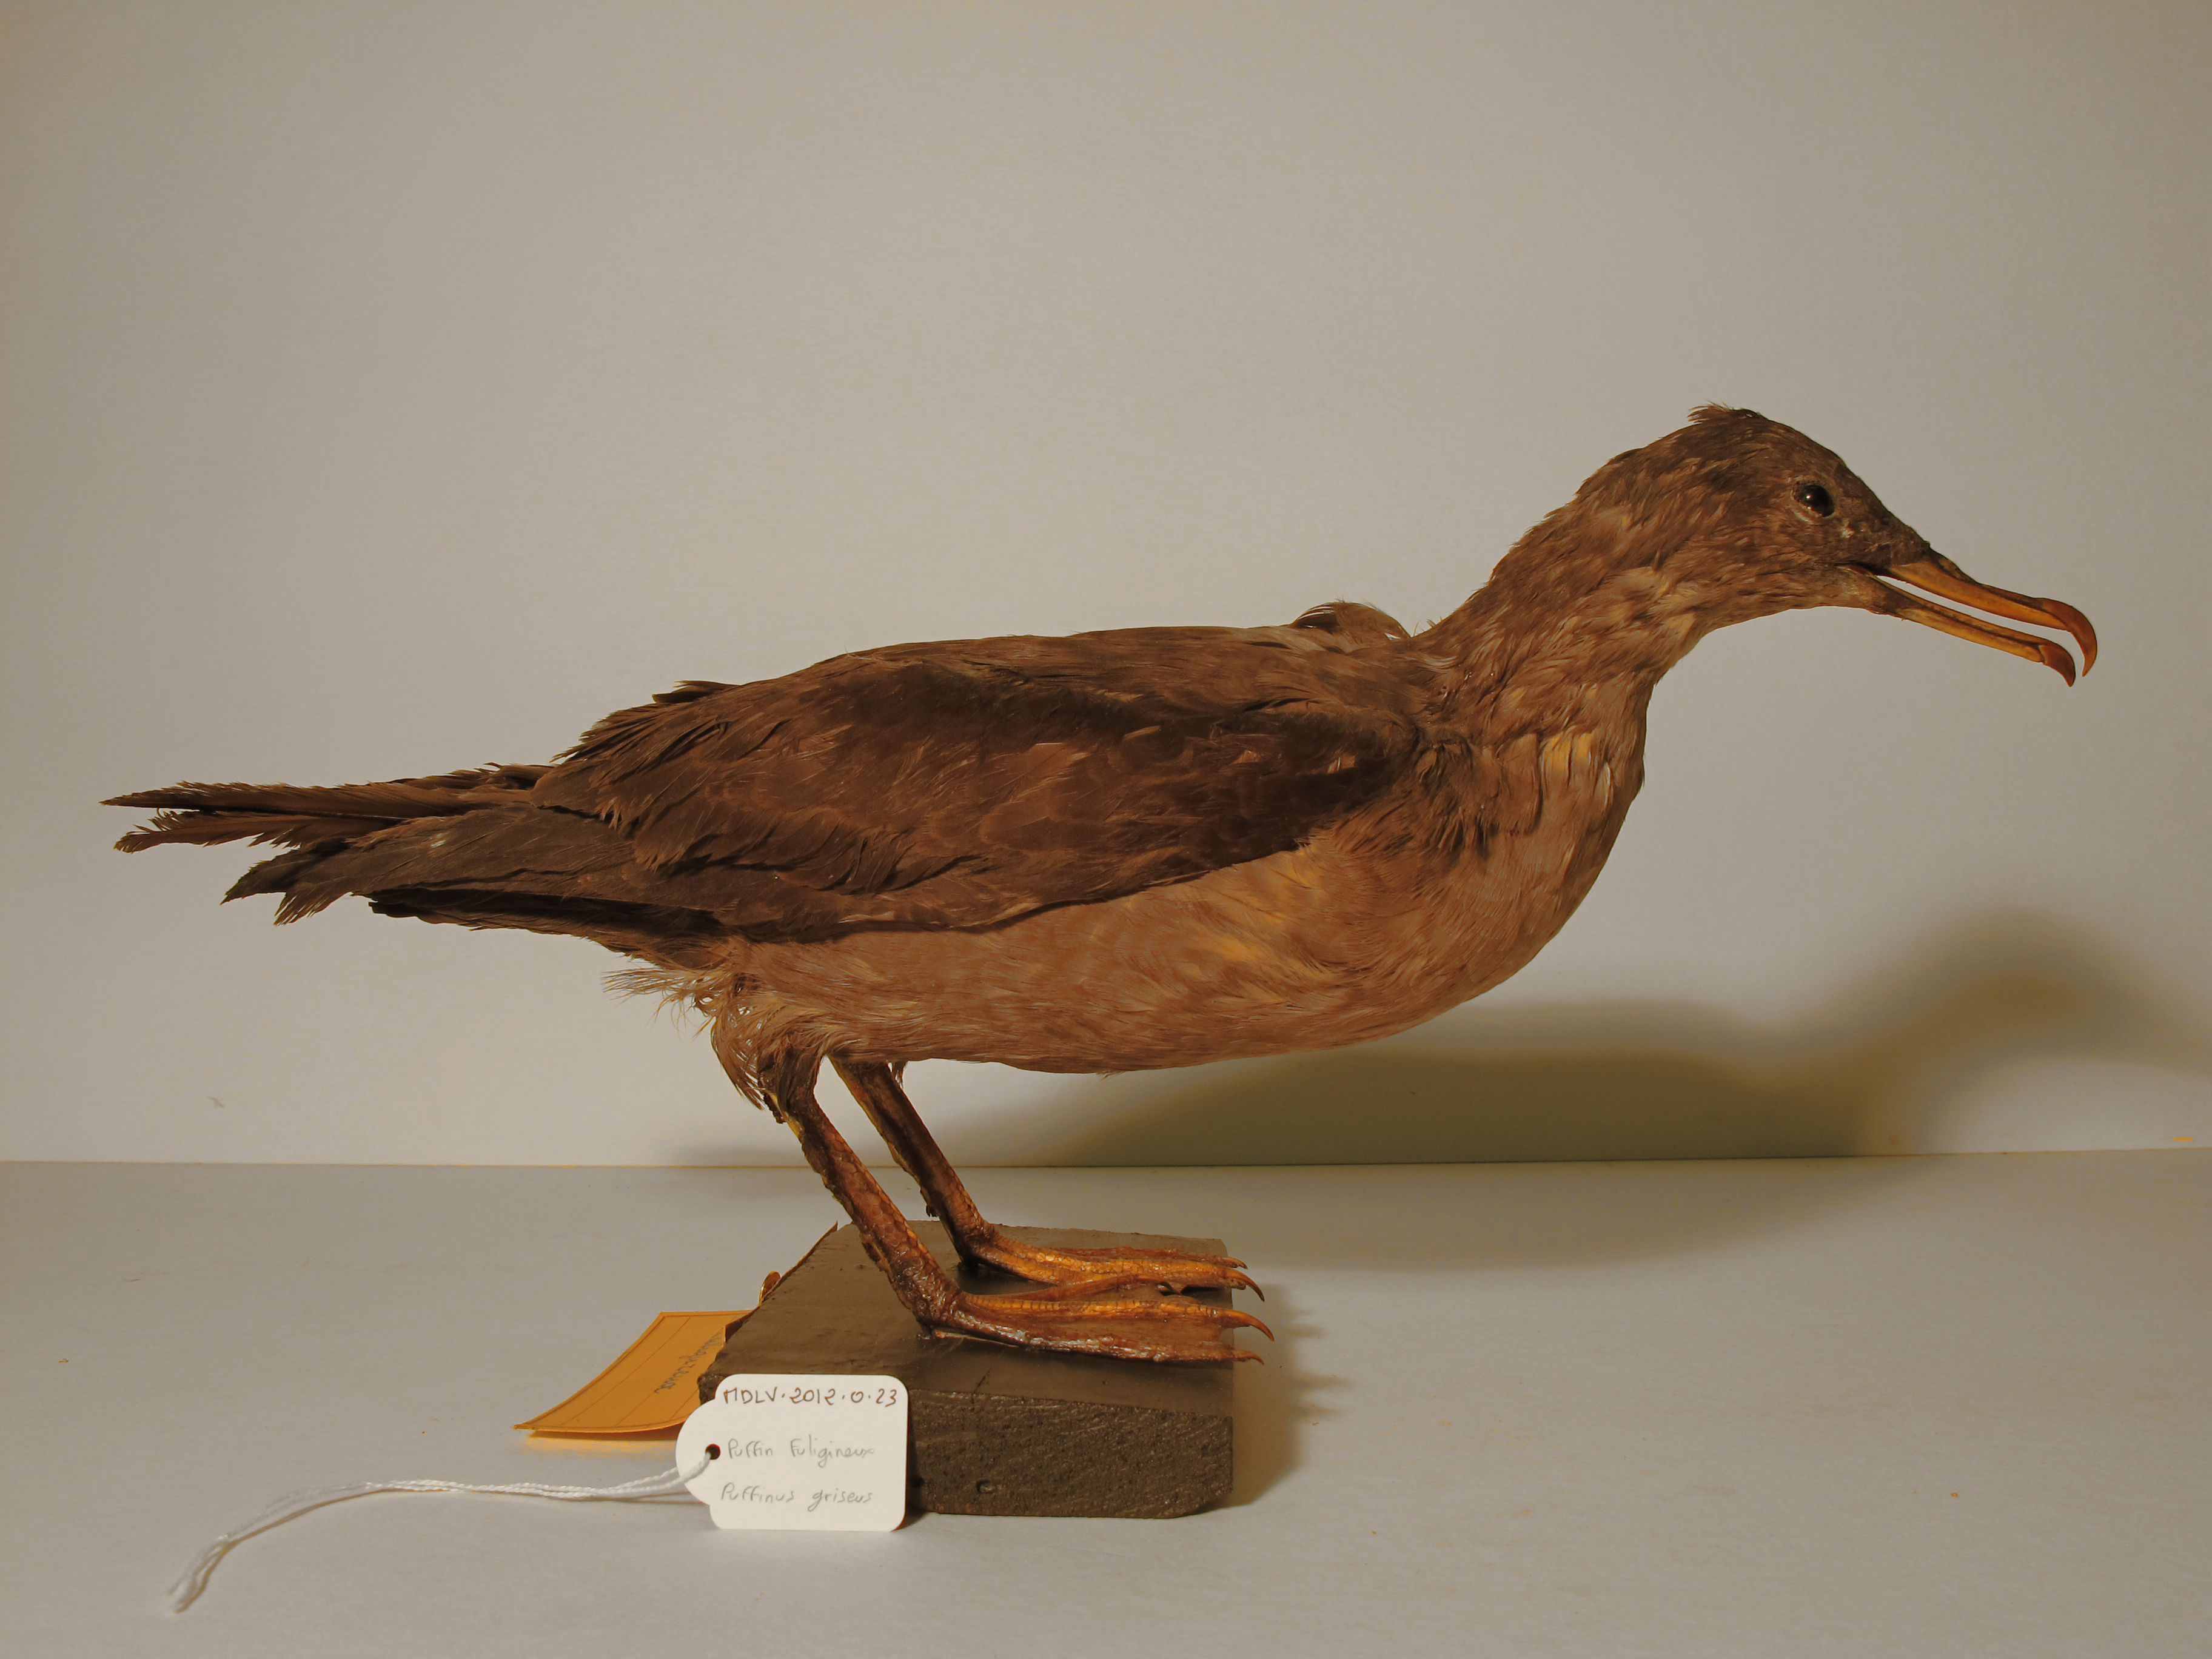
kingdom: Animalia
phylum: Chordata
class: Aves
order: Procellariiformes
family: Procellariidae
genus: Puffinus
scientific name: Puffinus griseus
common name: Sooty Shearwater
